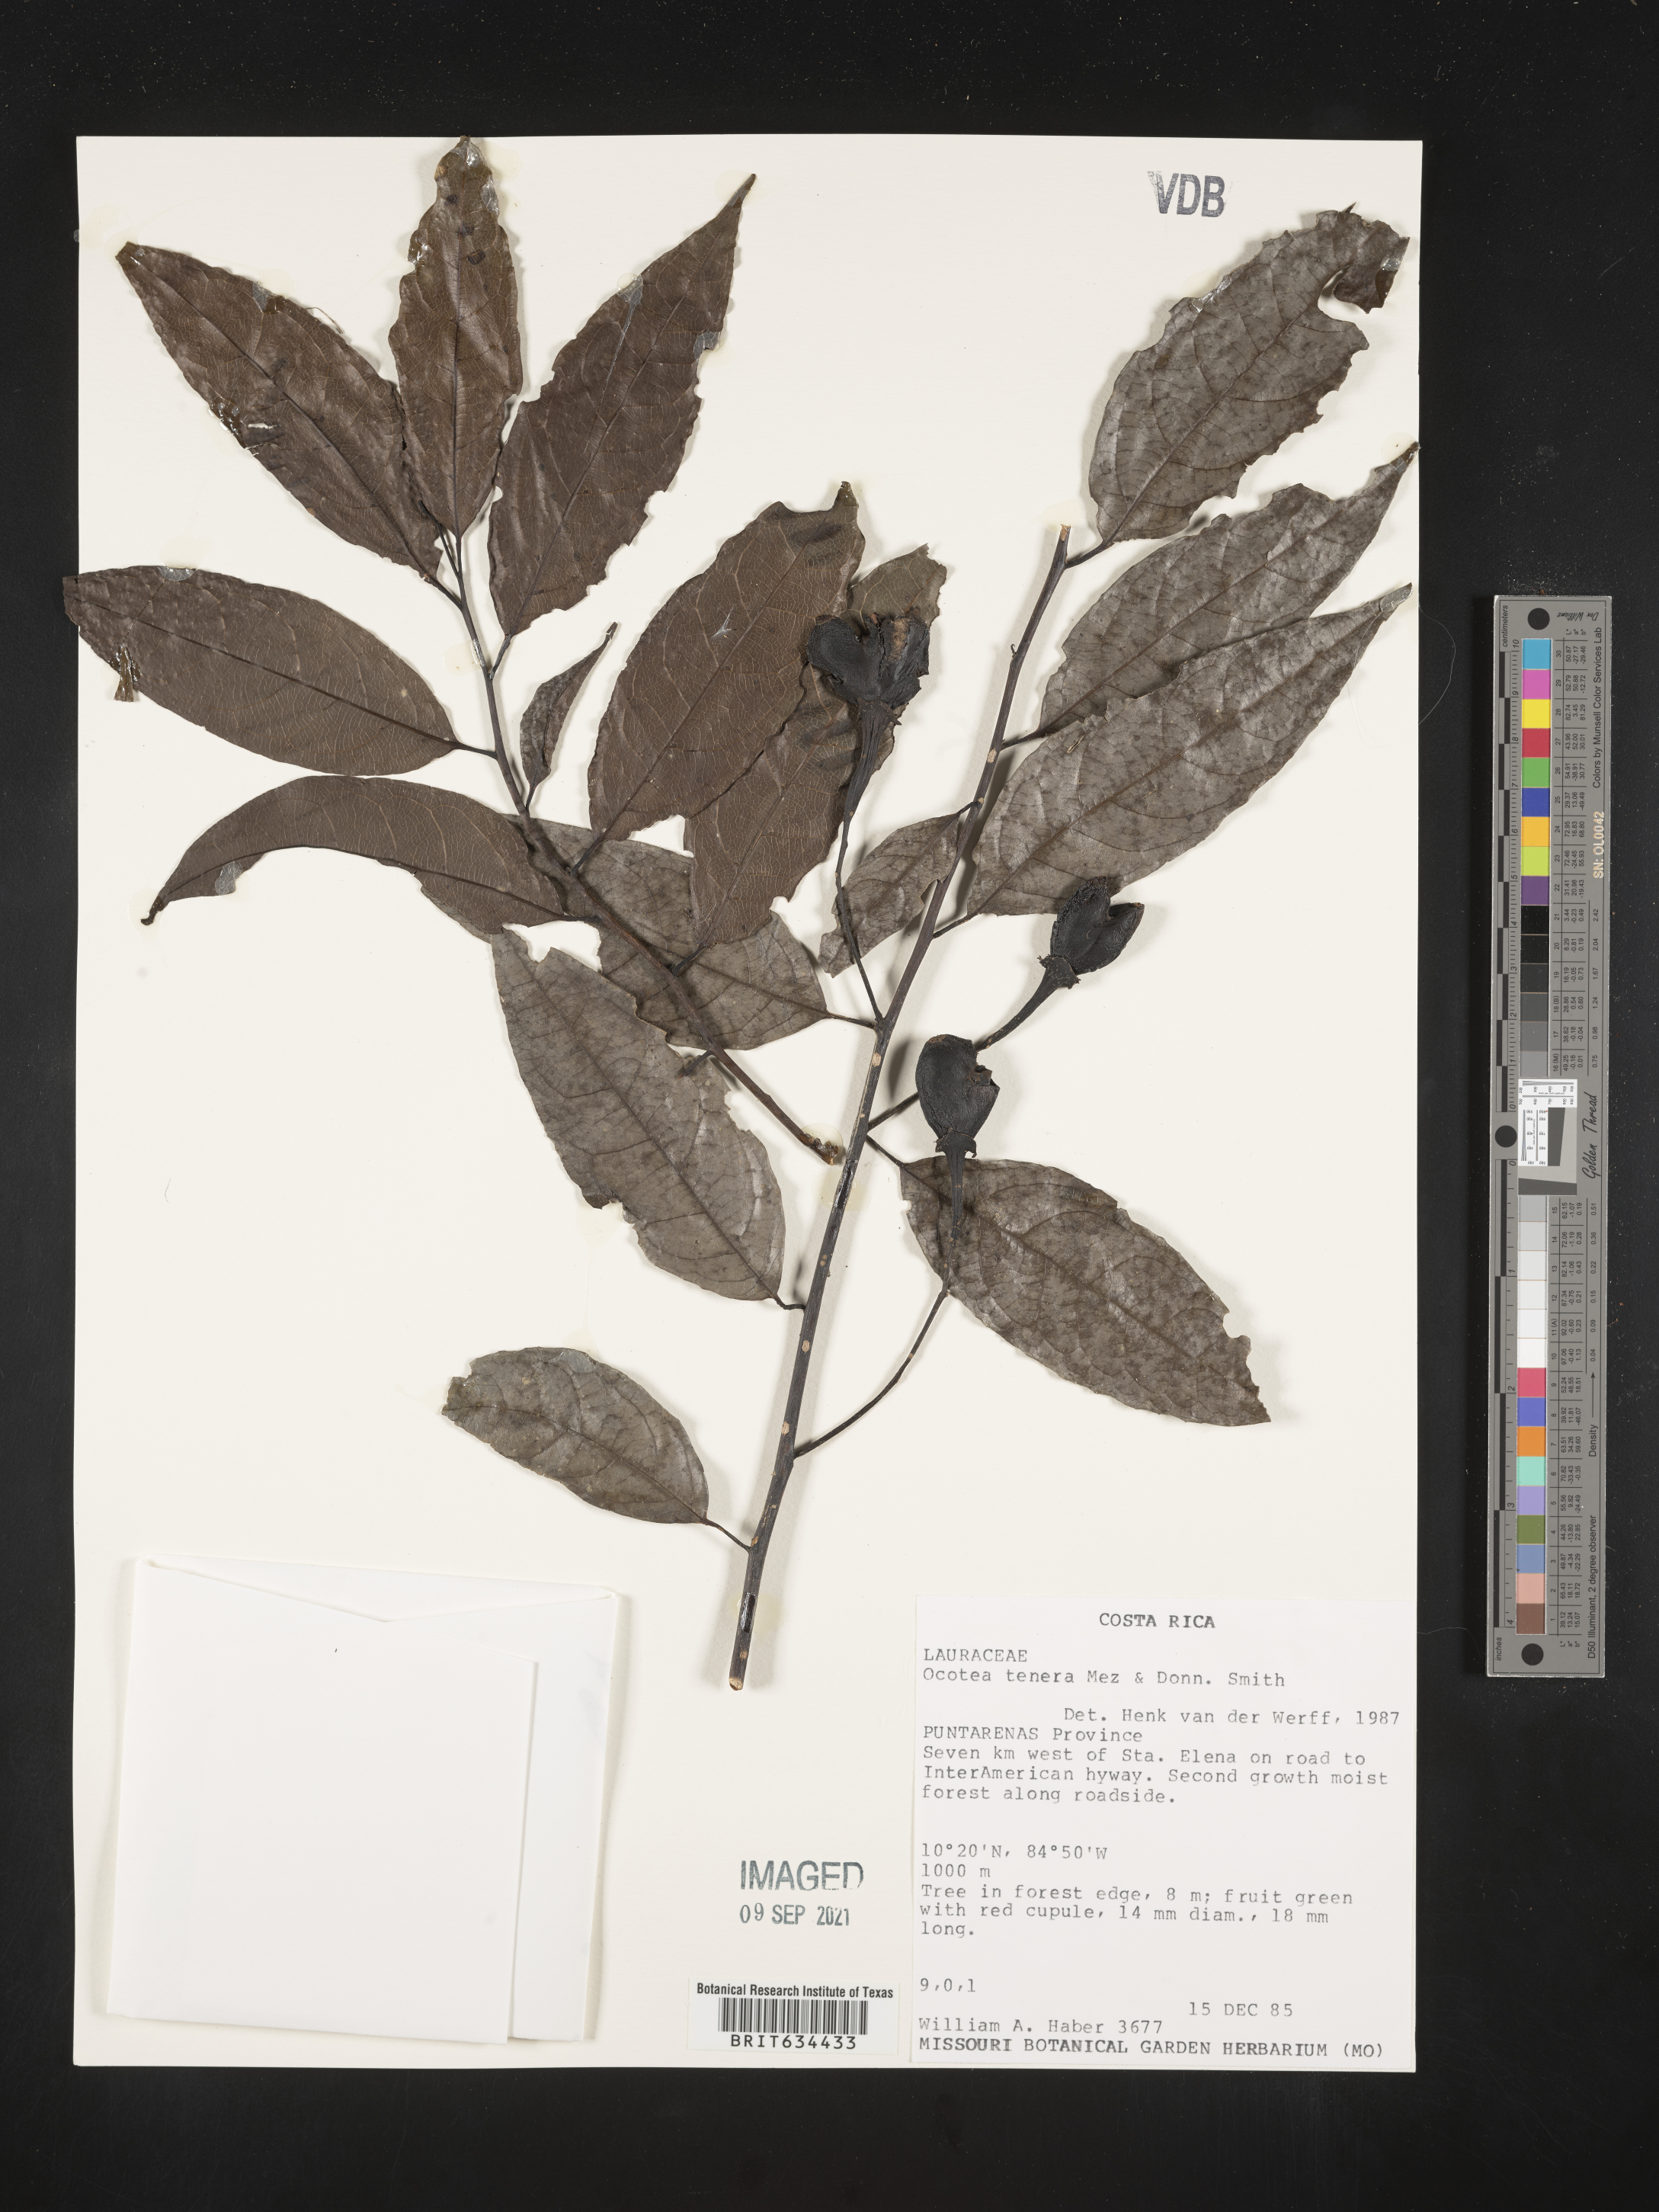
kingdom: Plantae
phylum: Tracheophyta
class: Magnoliopsida
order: Laurales
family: Lauraceae
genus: Ocotea
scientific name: Ocotea
